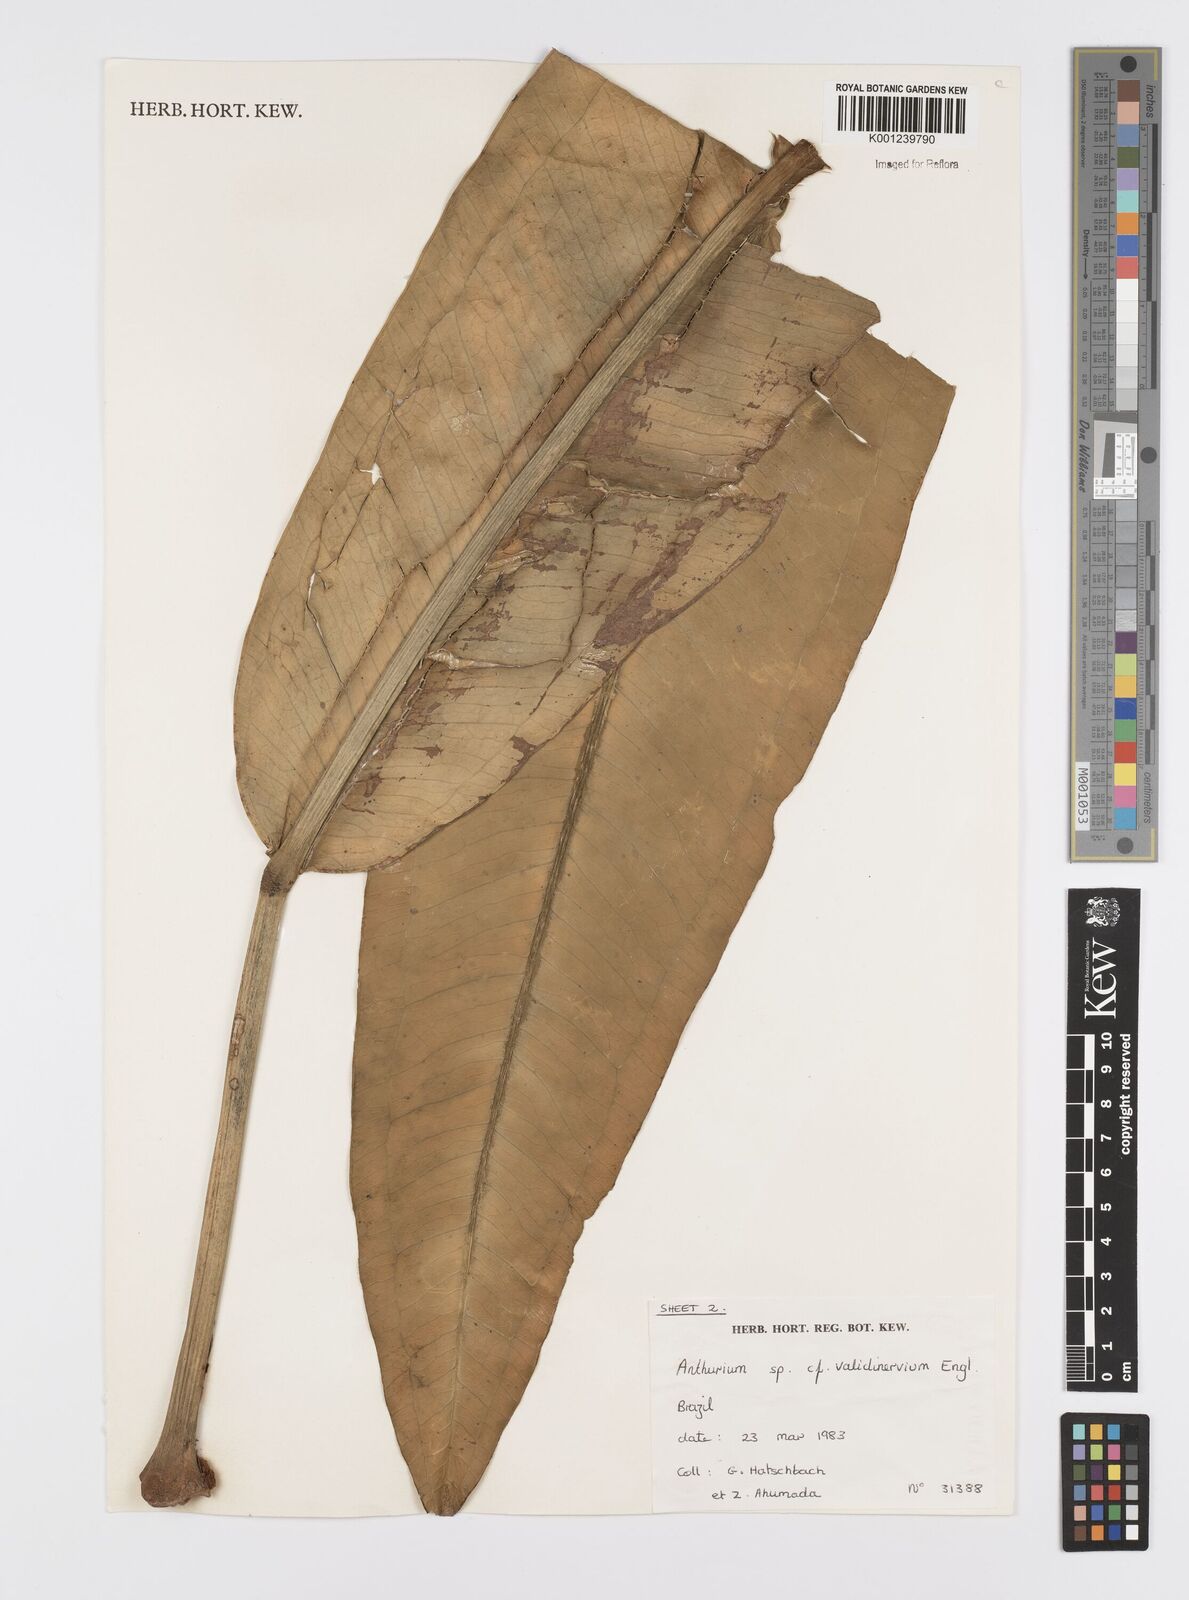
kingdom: Plantae
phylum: Tracheophyta
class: Liliopsida
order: Alismatales
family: Araceae
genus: Anthurium
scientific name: Anthurium
